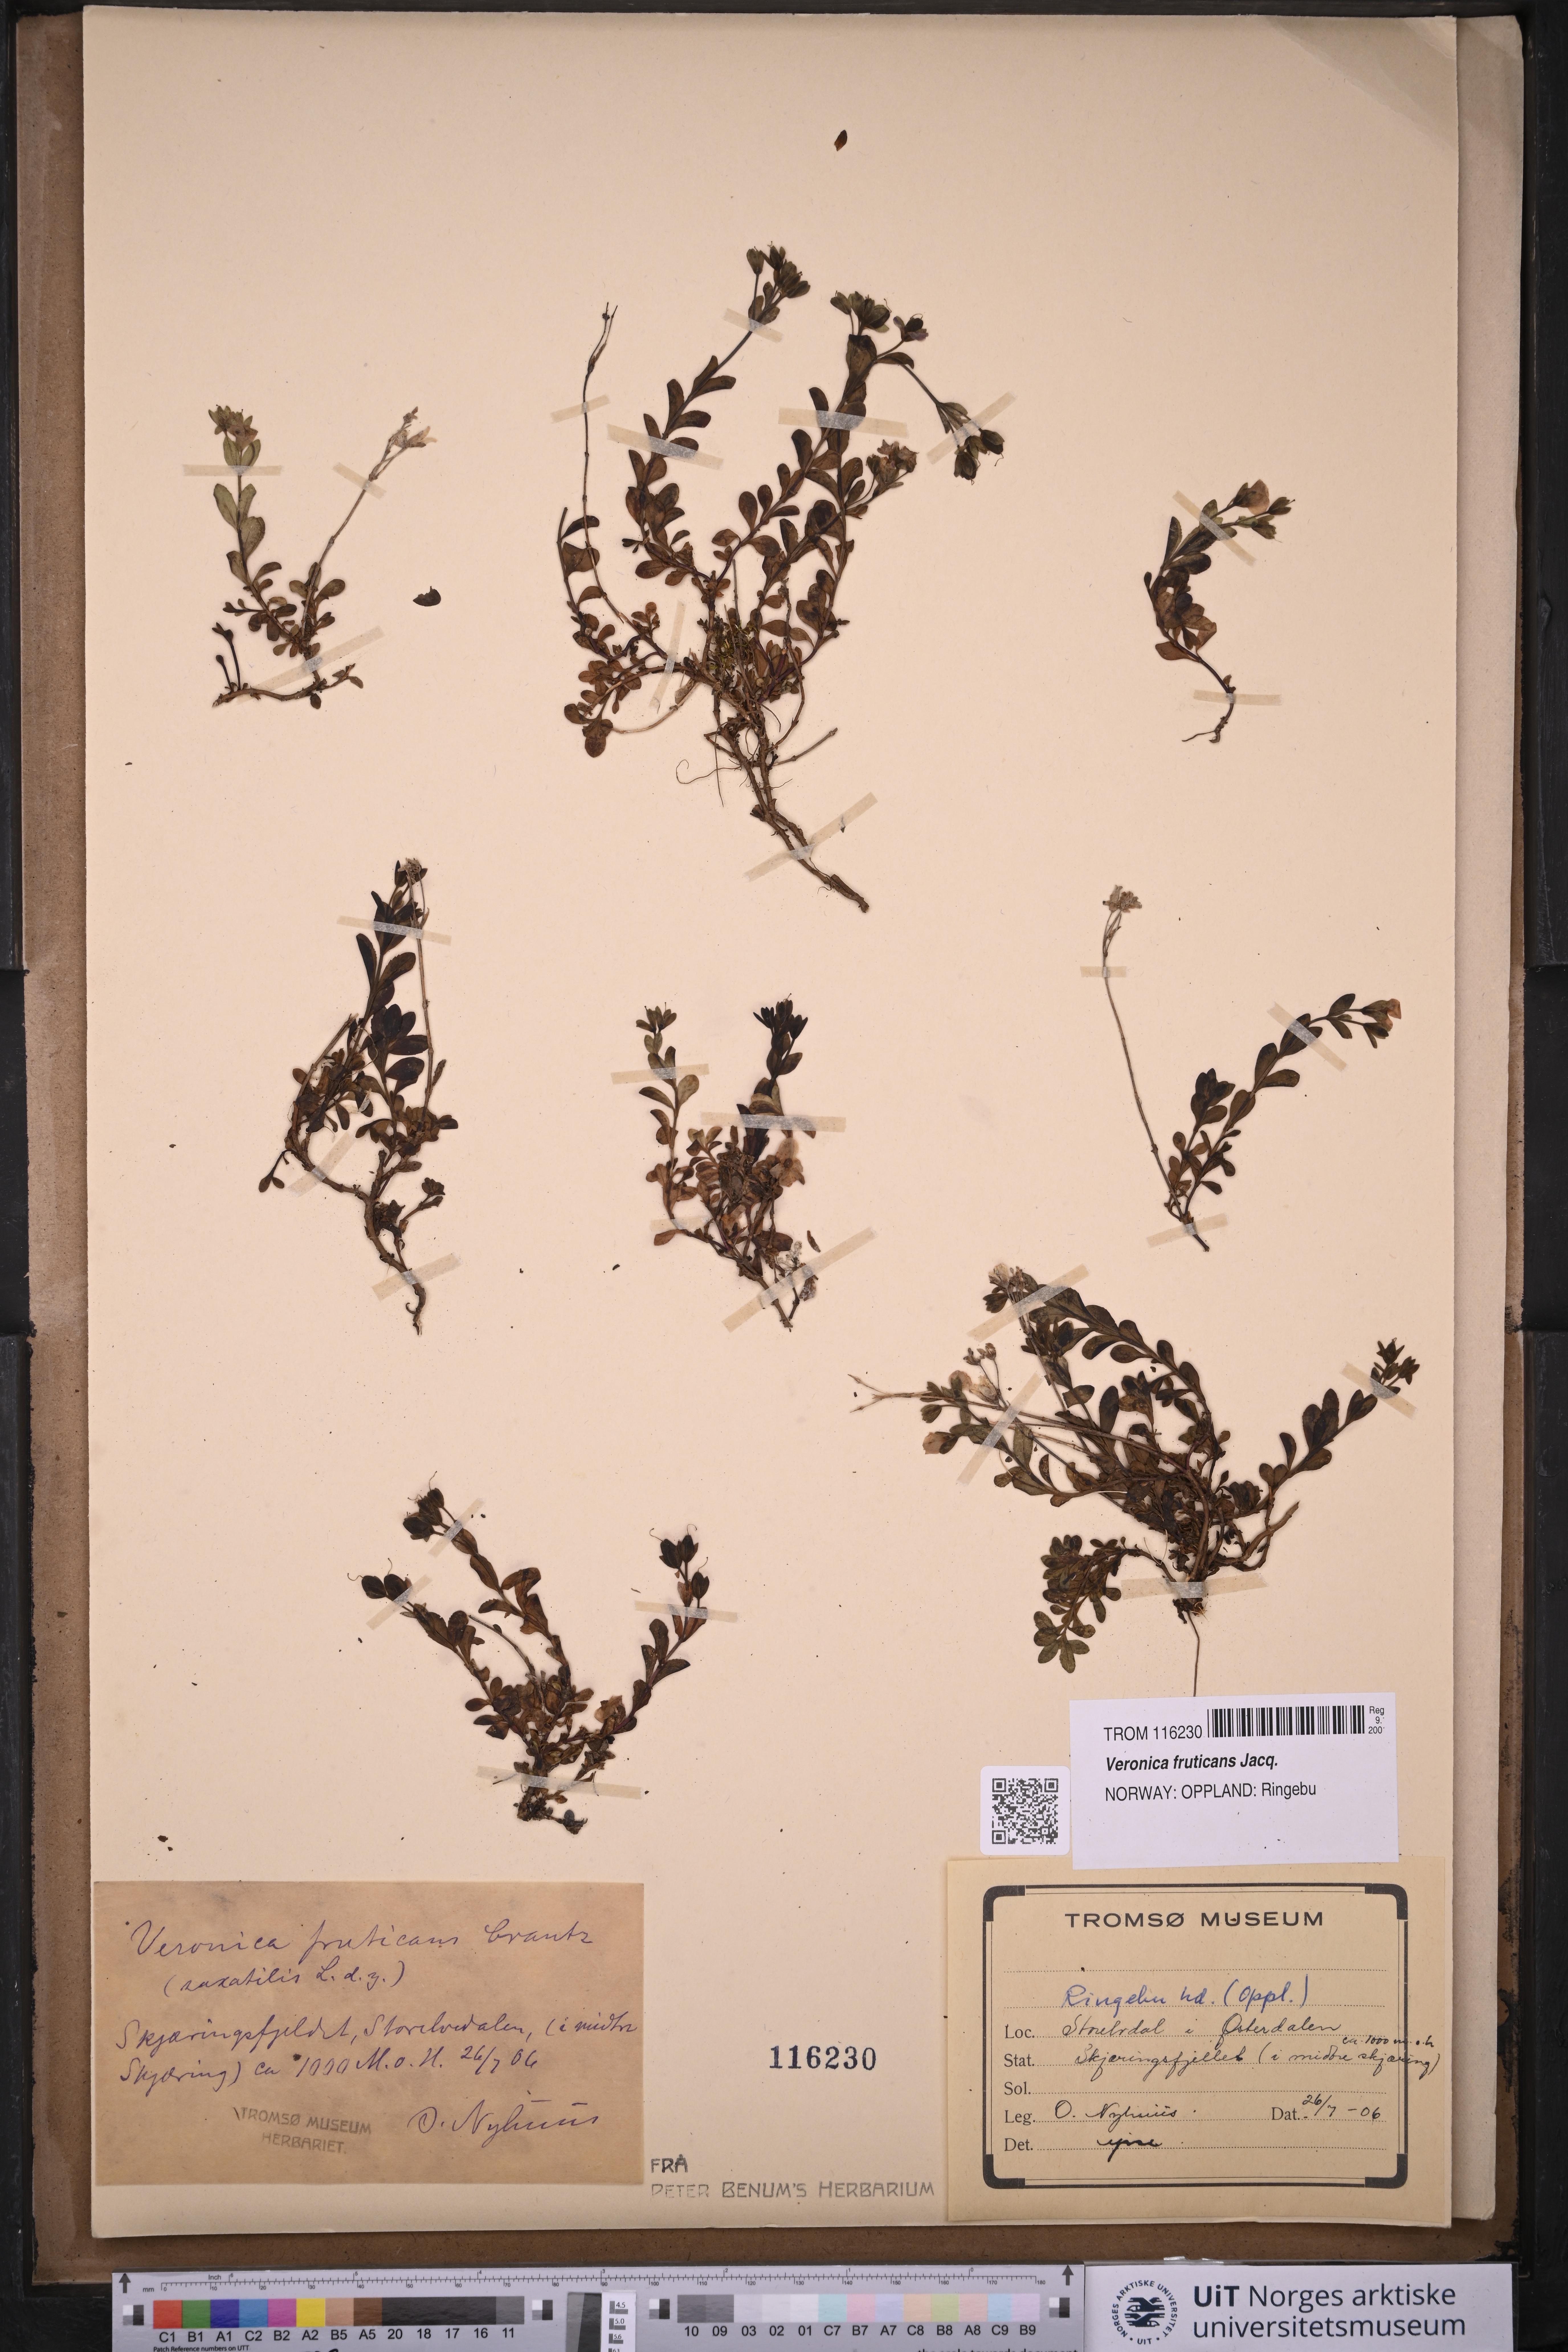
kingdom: Plantae
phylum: Tracheophyta
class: Magnoliopsida
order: Lamiales
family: Plantaginaceae
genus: Veronica
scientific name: Veronica fruticans
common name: Rock speedwell
